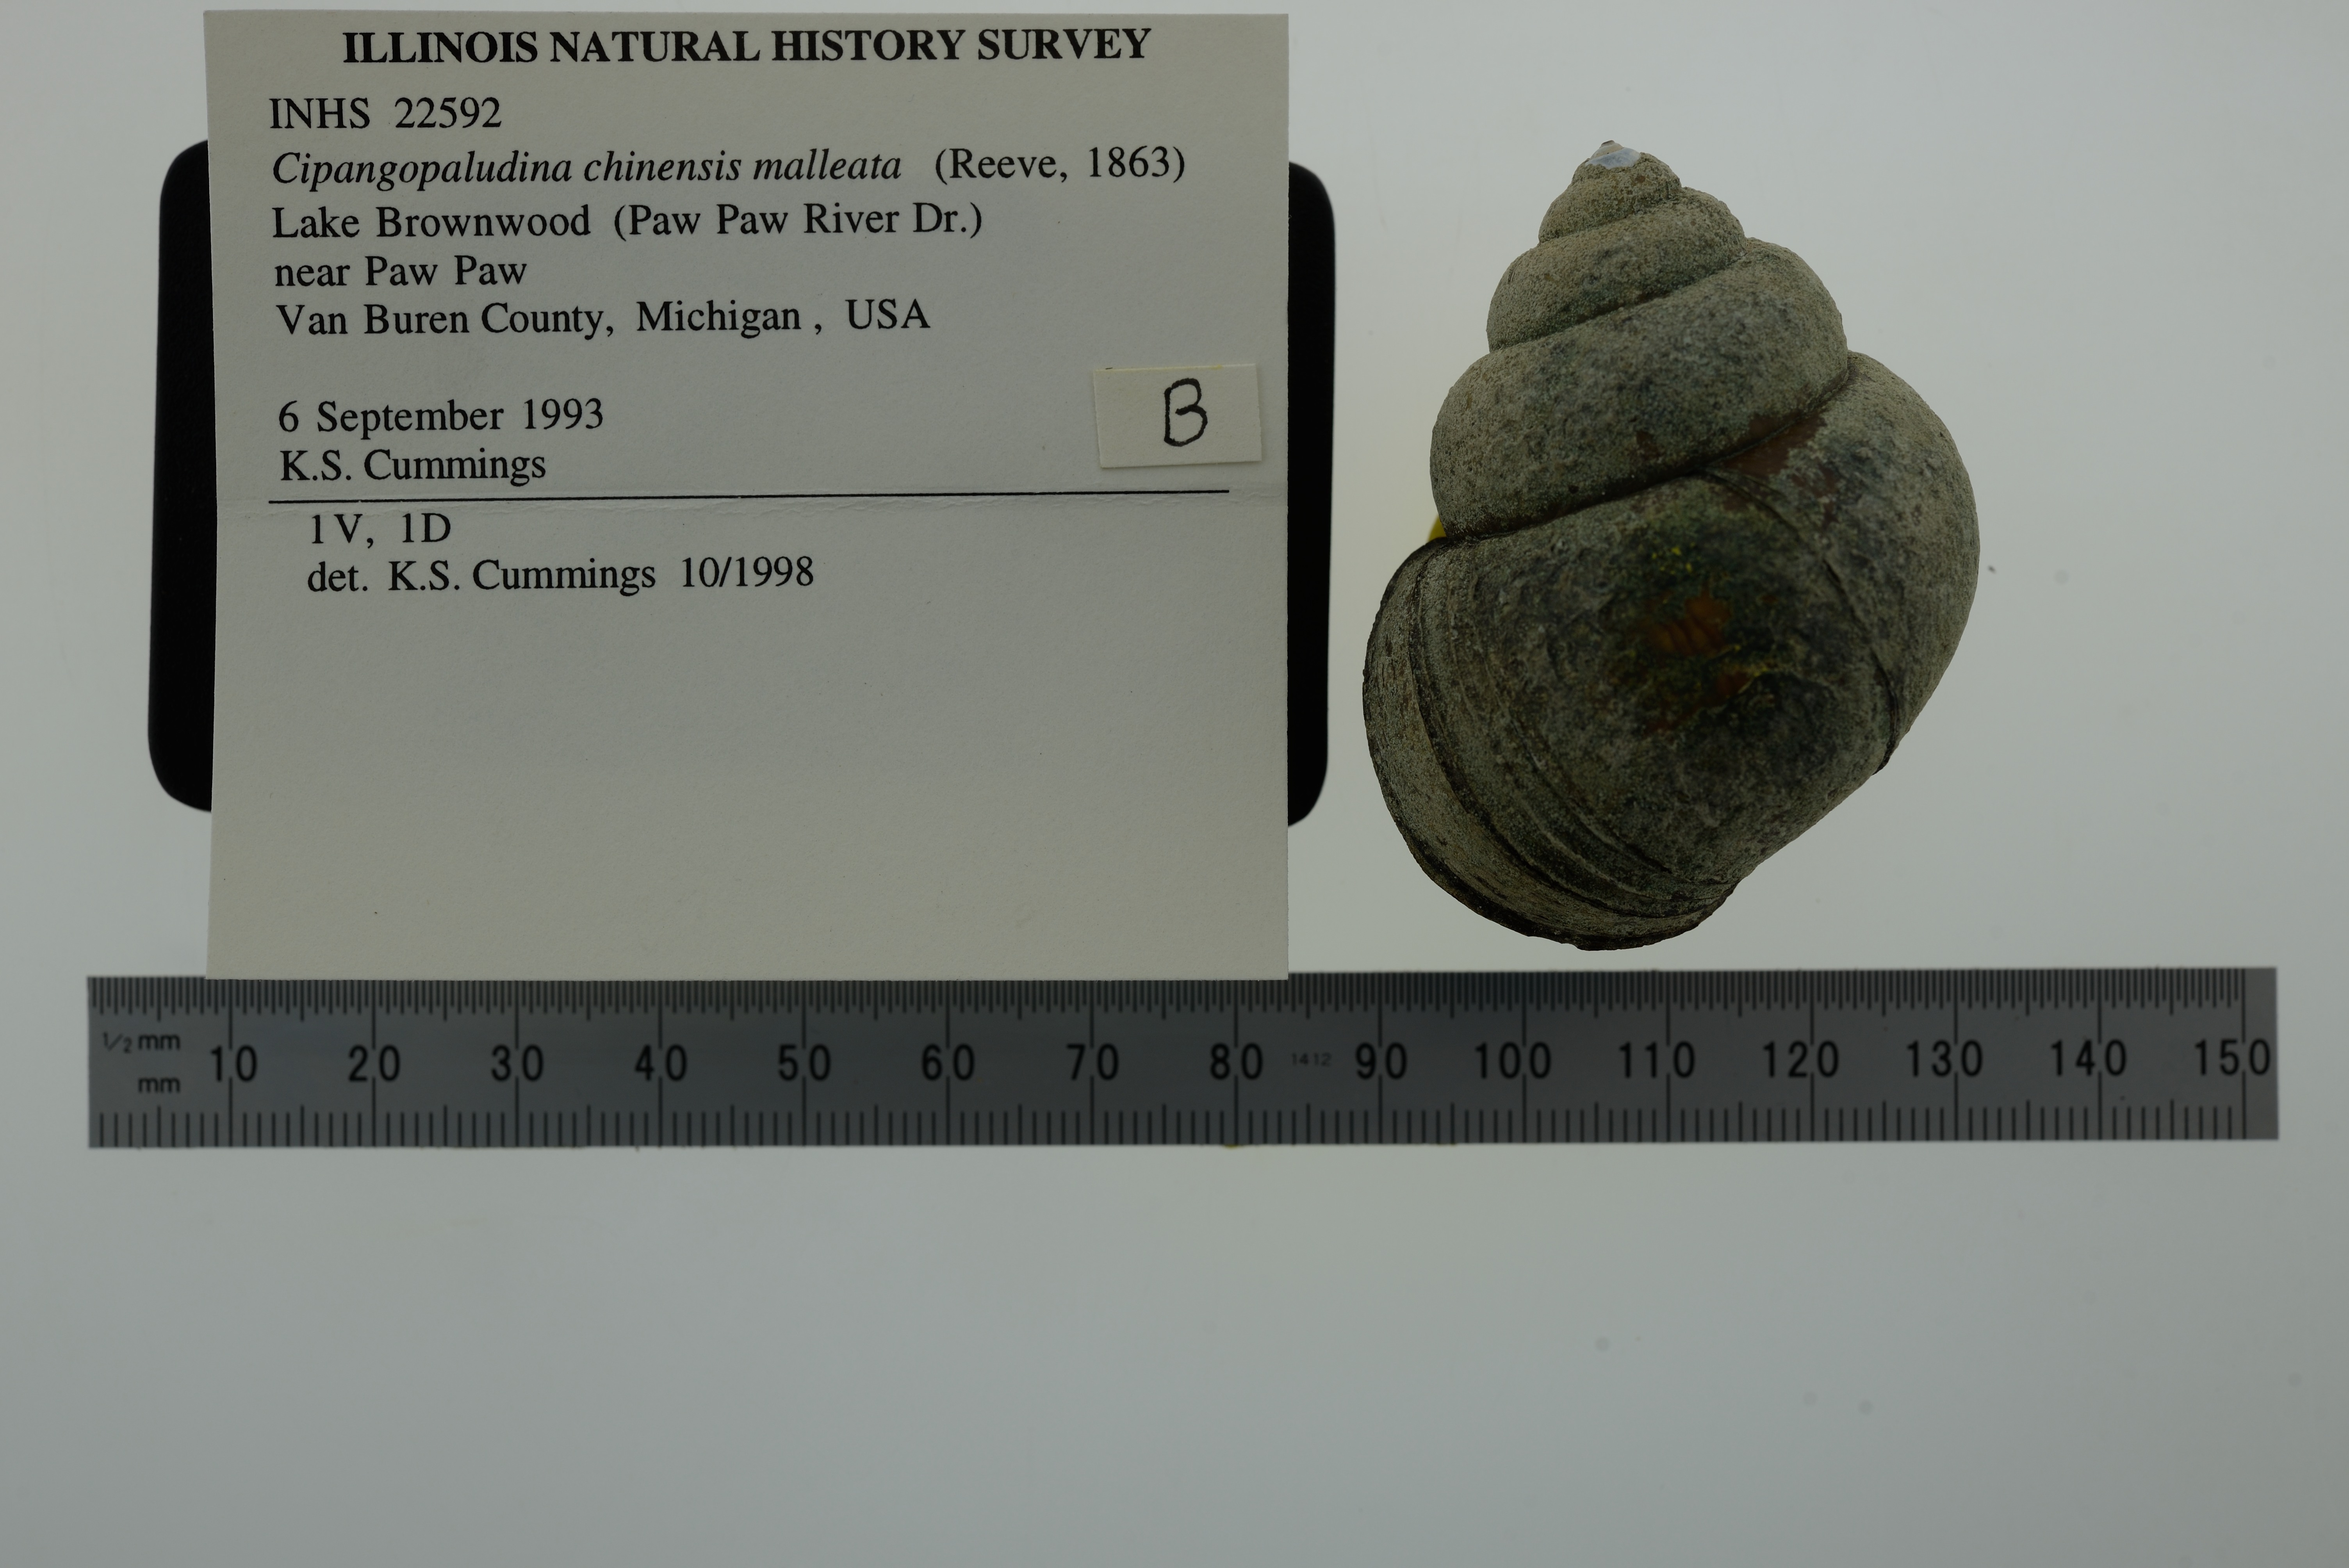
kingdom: Animalia
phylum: Mollusca
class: Gastropoda
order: Architaenioglossa
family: Viviparidae
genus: Cipangopaludina
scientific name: Cipangopaludina chinensis
